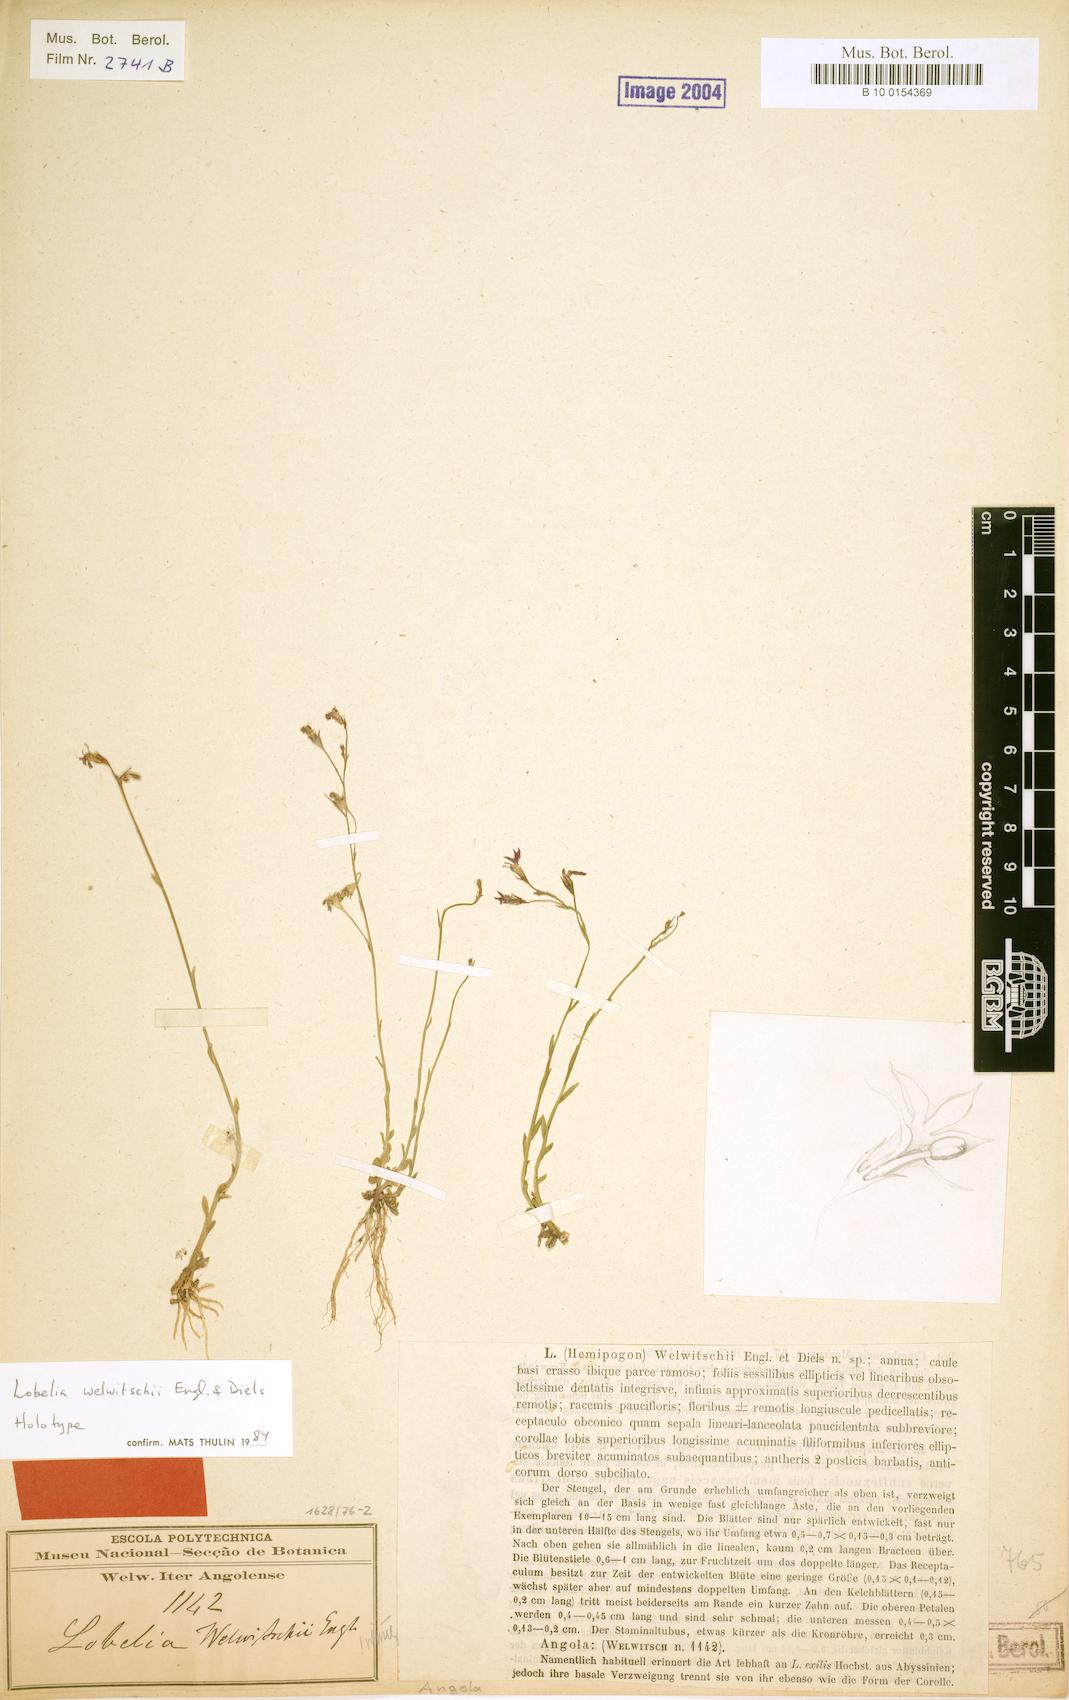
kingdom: Plantae
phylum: Tracheophyta
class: Magnoliopsida
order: Asterales
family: Campanulaceae
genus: Lobelia
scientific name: Lobelia welwitschii
